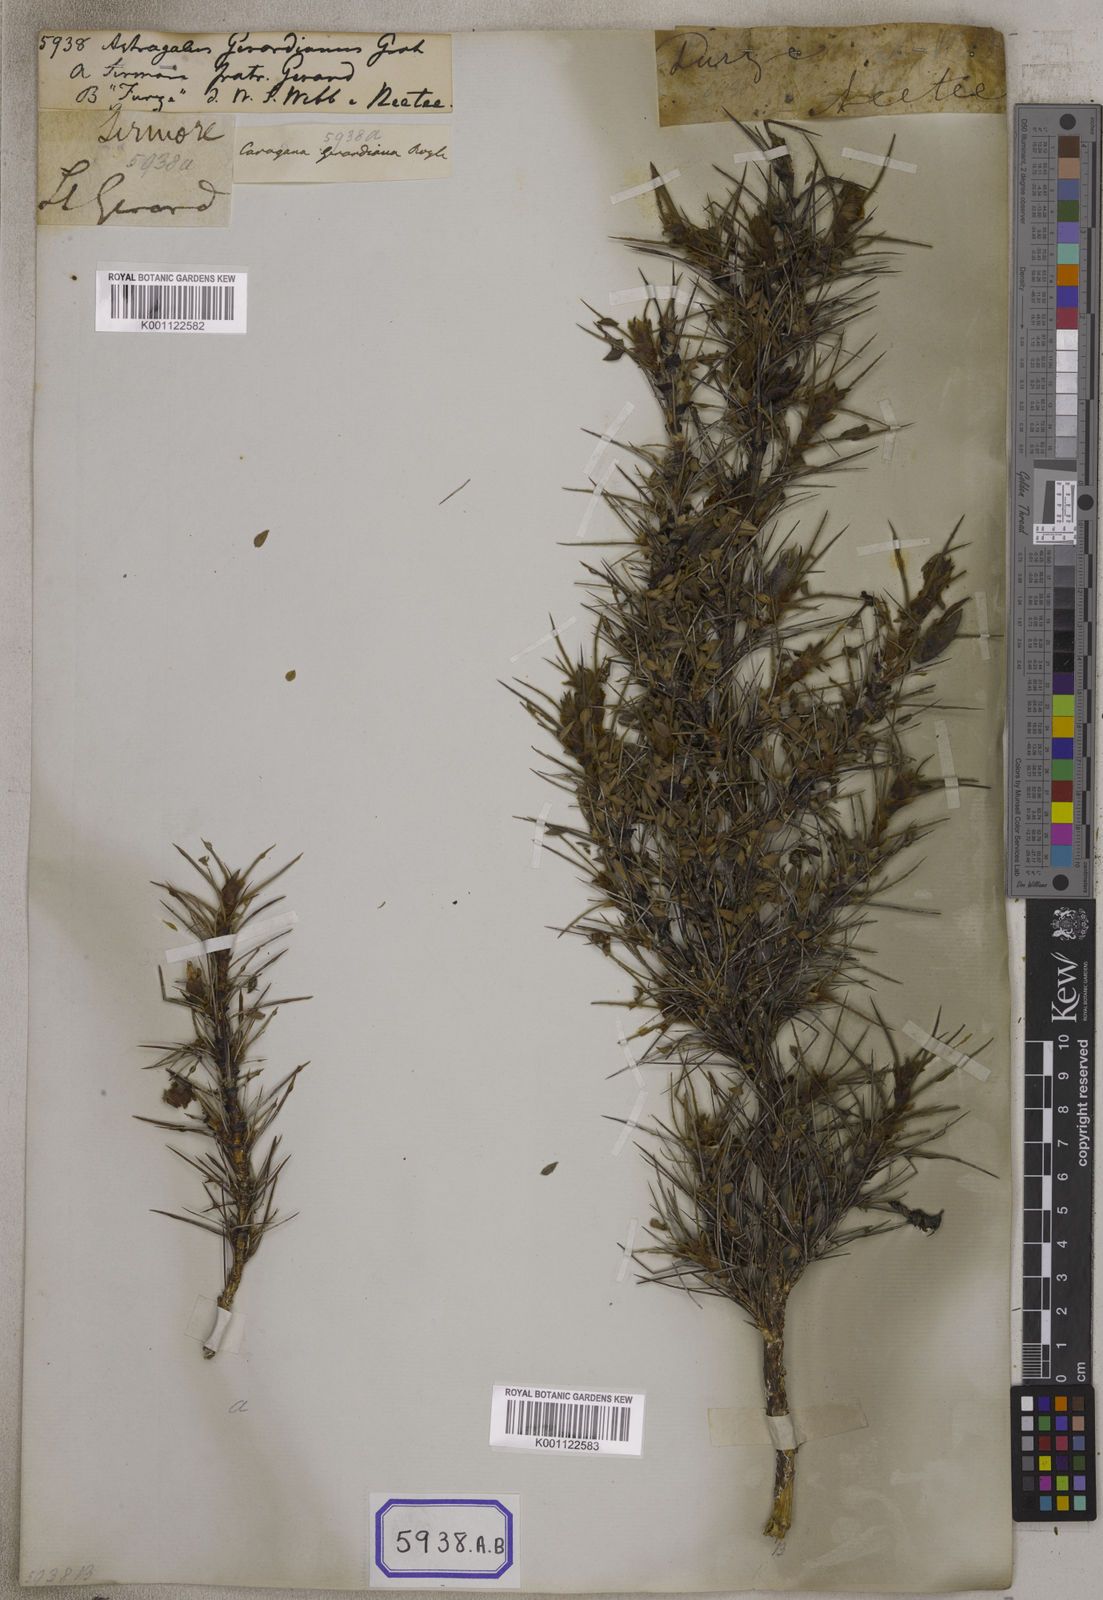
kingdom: Plantae
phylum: Tracheophyta
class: Magnoliopsida
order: Fabales
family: Fabaceae
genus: Astragalus
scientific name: Astragalus
